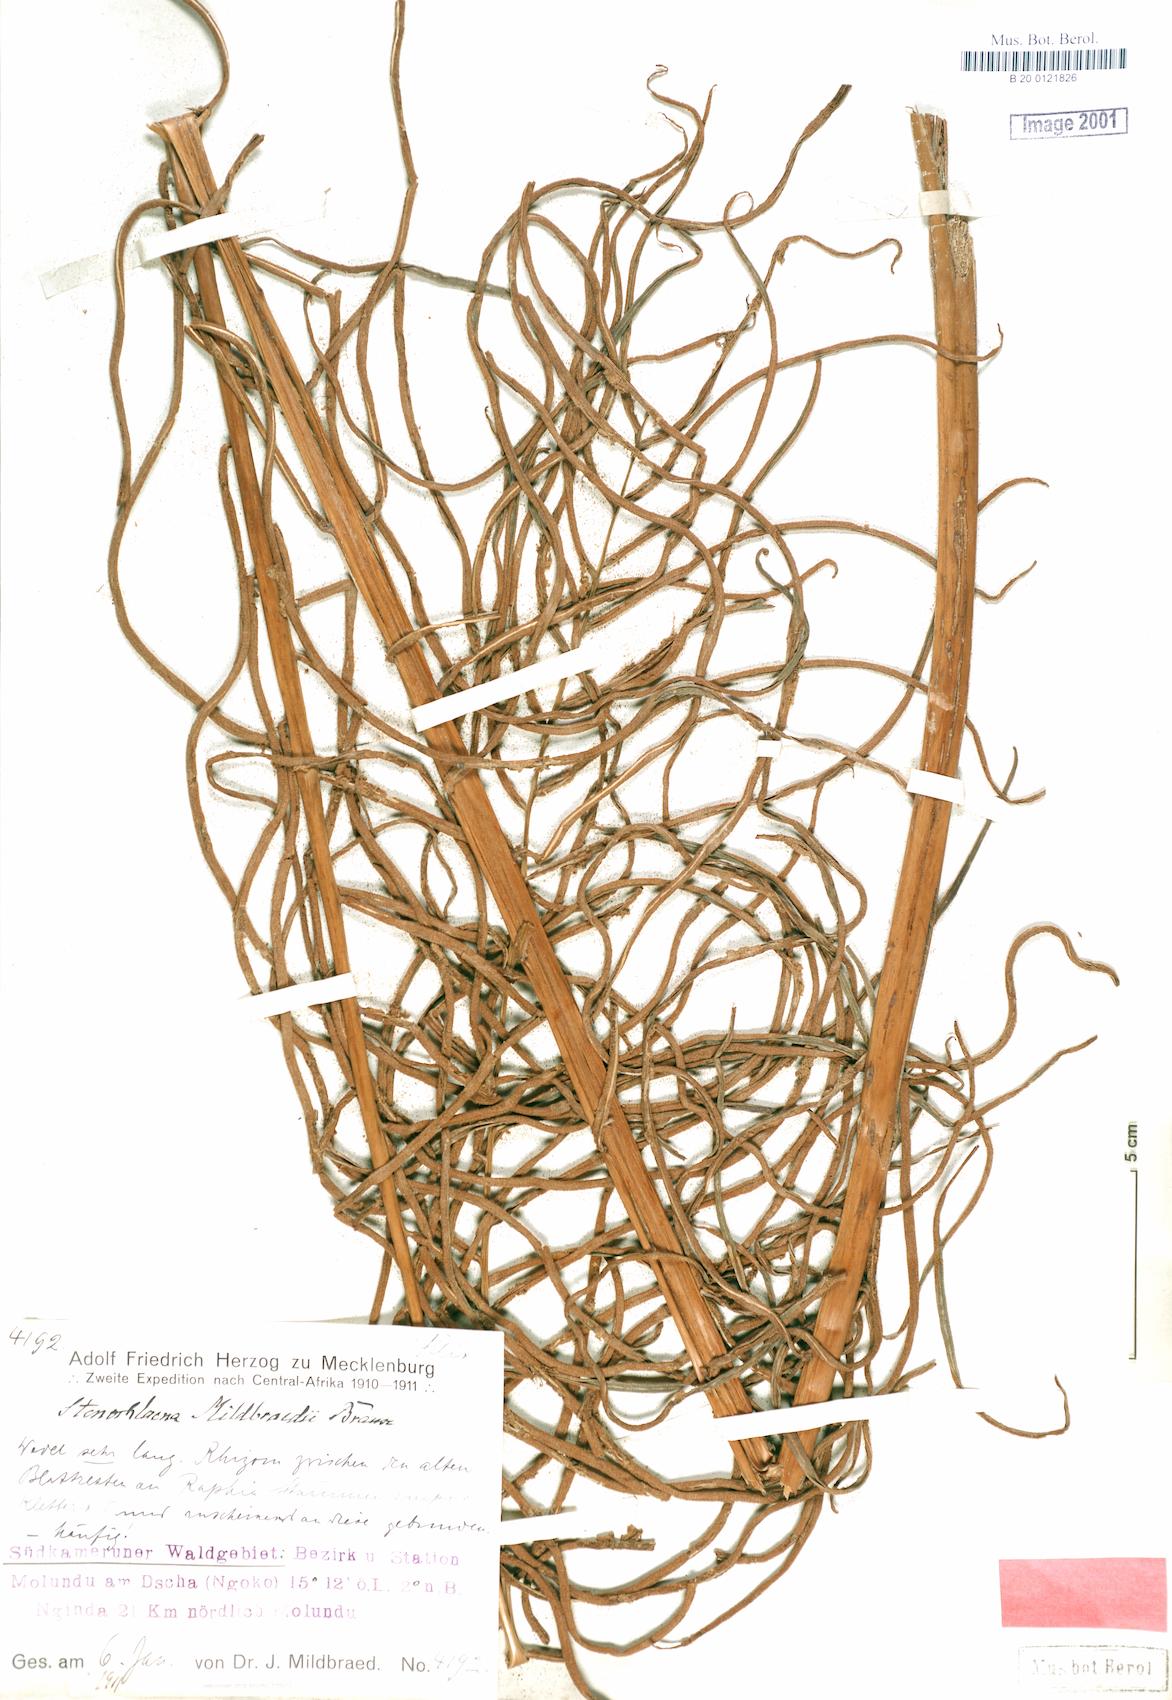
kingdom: Plantae
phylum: Tracheophyta
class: Polypodiopsida
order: Polypodiales
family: Blechnaceae
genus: Stenochlaena
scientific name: Stenochlaena tenuifolia
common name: Giant vine fern
